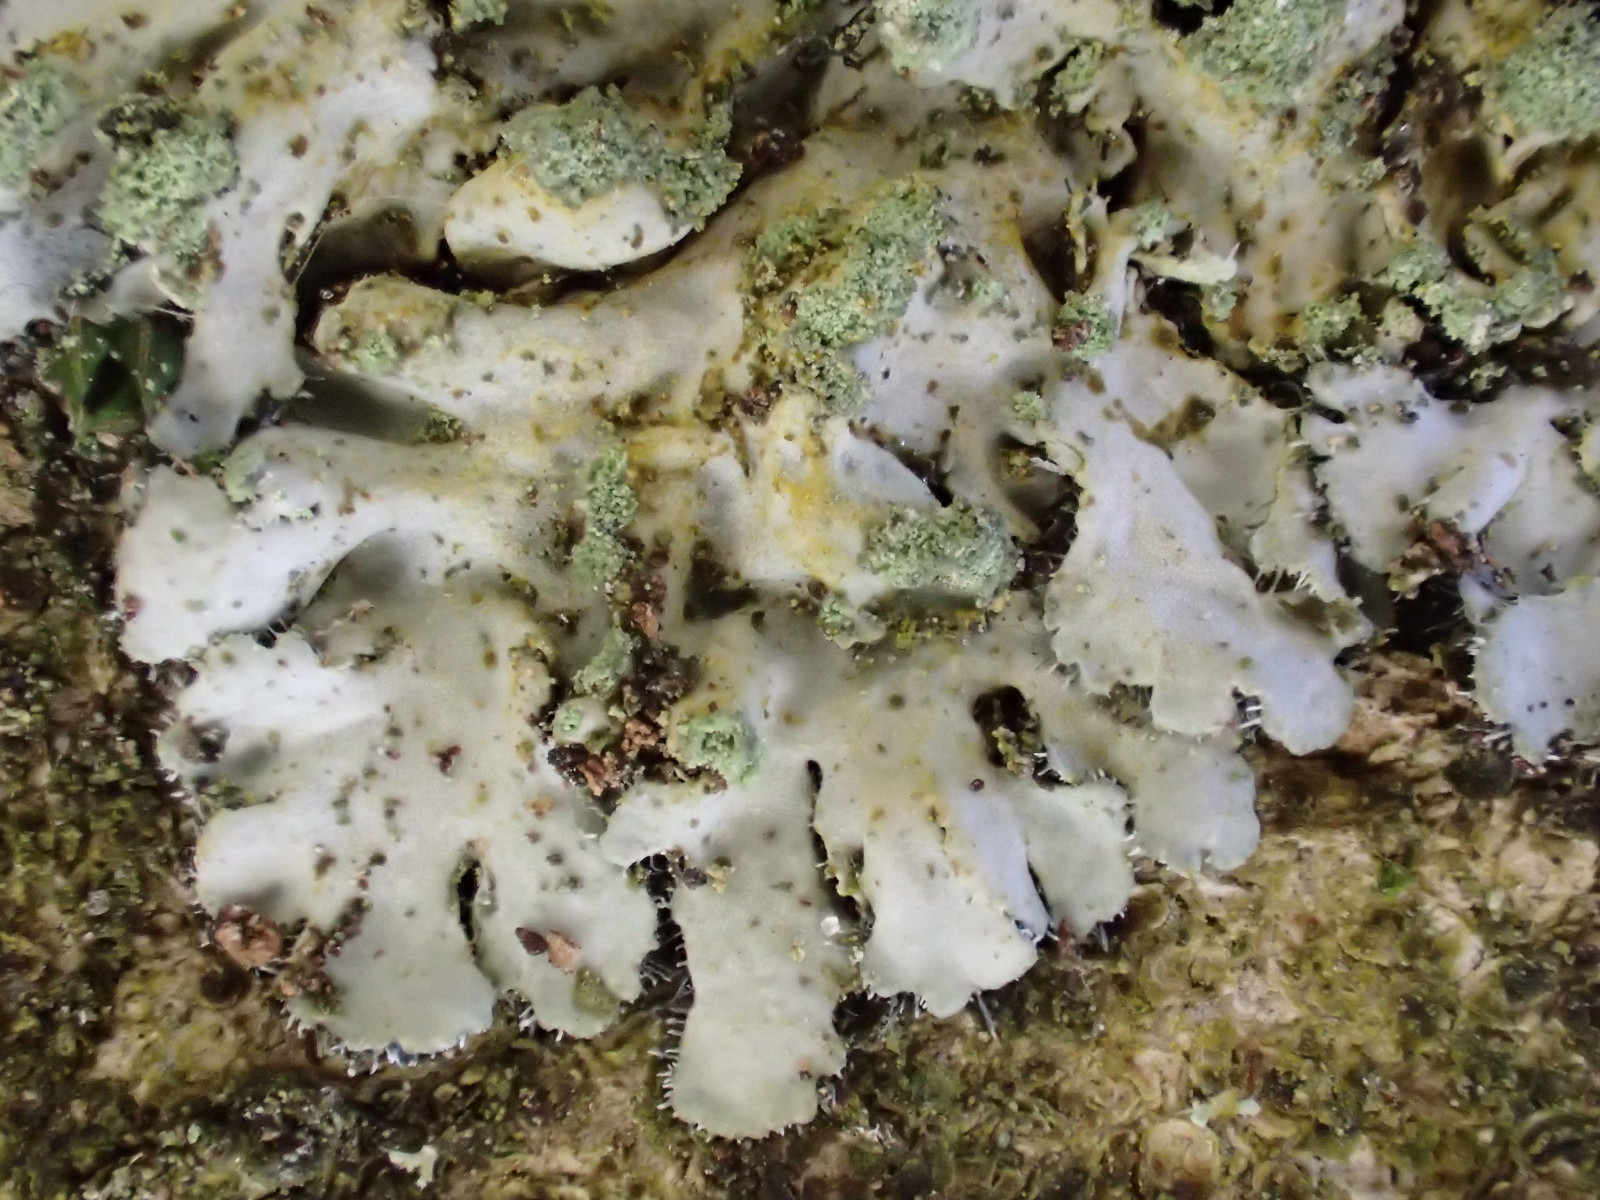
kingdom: Fungi
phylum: Ascomycota
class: Lecanoromycetes
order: Caliciales
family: Physciaceae
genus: Phaeophyscia
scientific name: Phaeophyscia orbicularis
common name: grågrøn rosetlav
